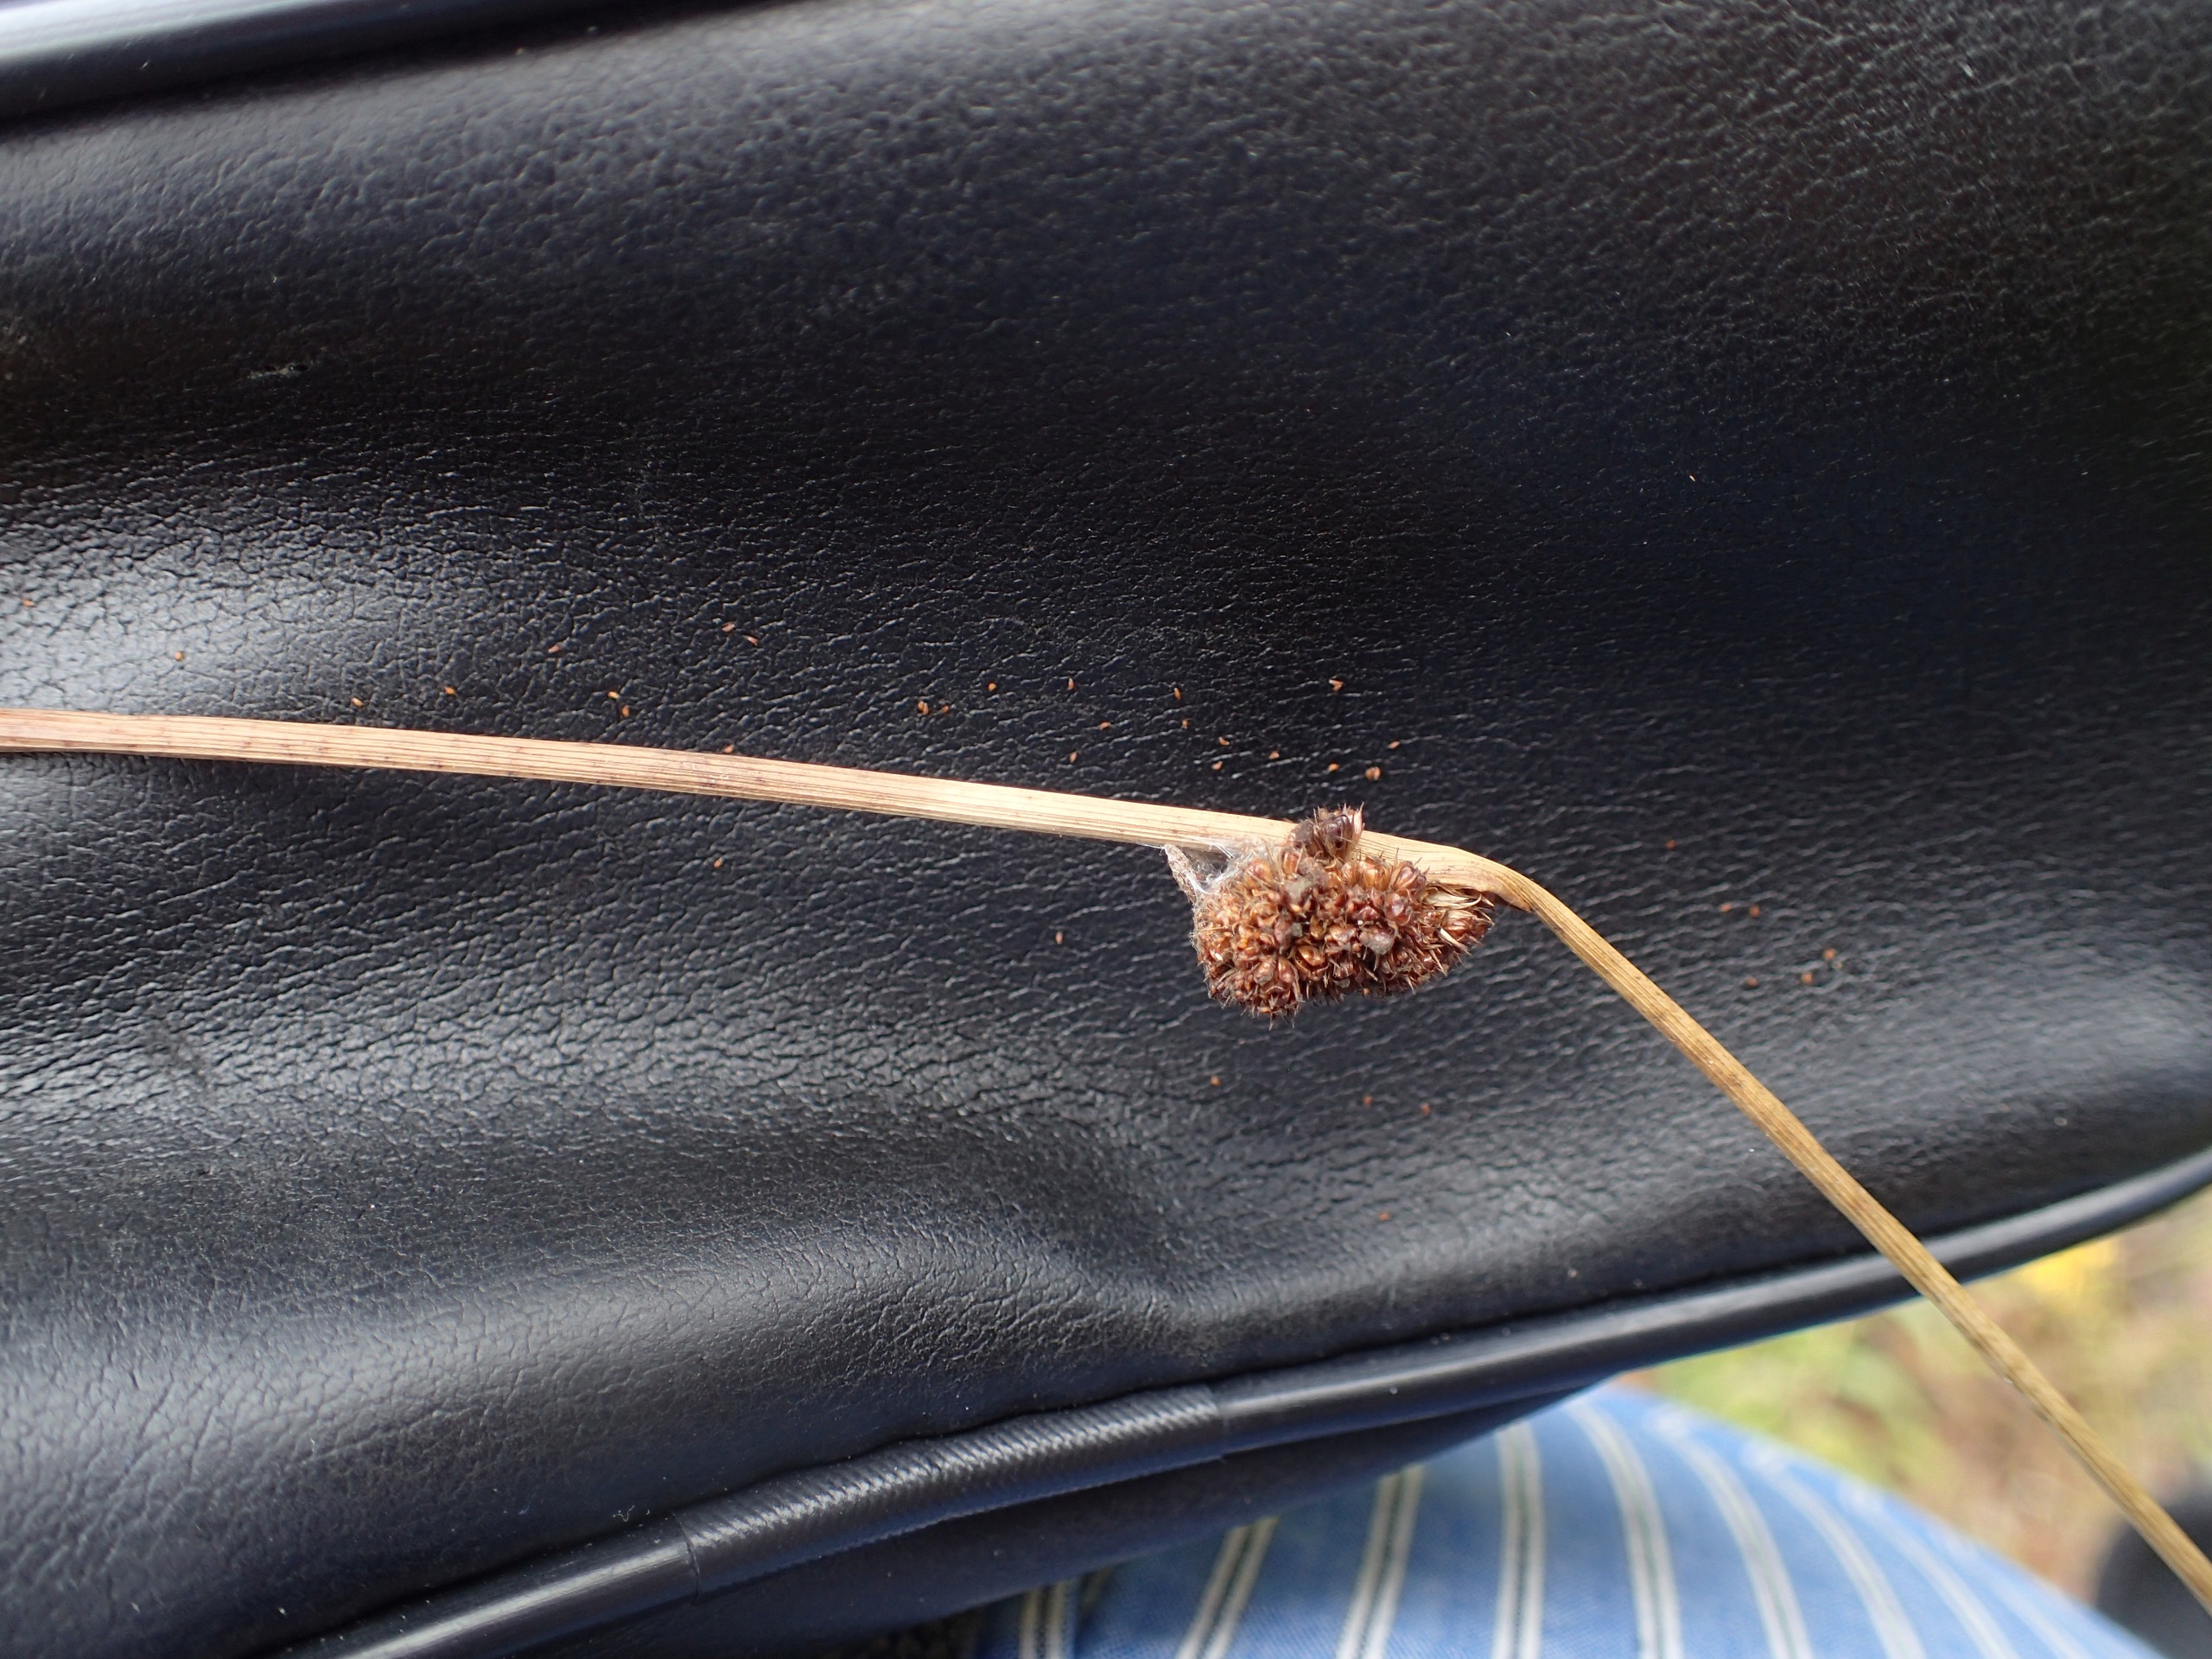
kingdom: Plantae
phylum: Tracheophyta
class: Liliopsida
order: Poales
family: Juncaceae
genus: Juncus
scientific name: Juncus conglomeratus
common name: Knop-siv
